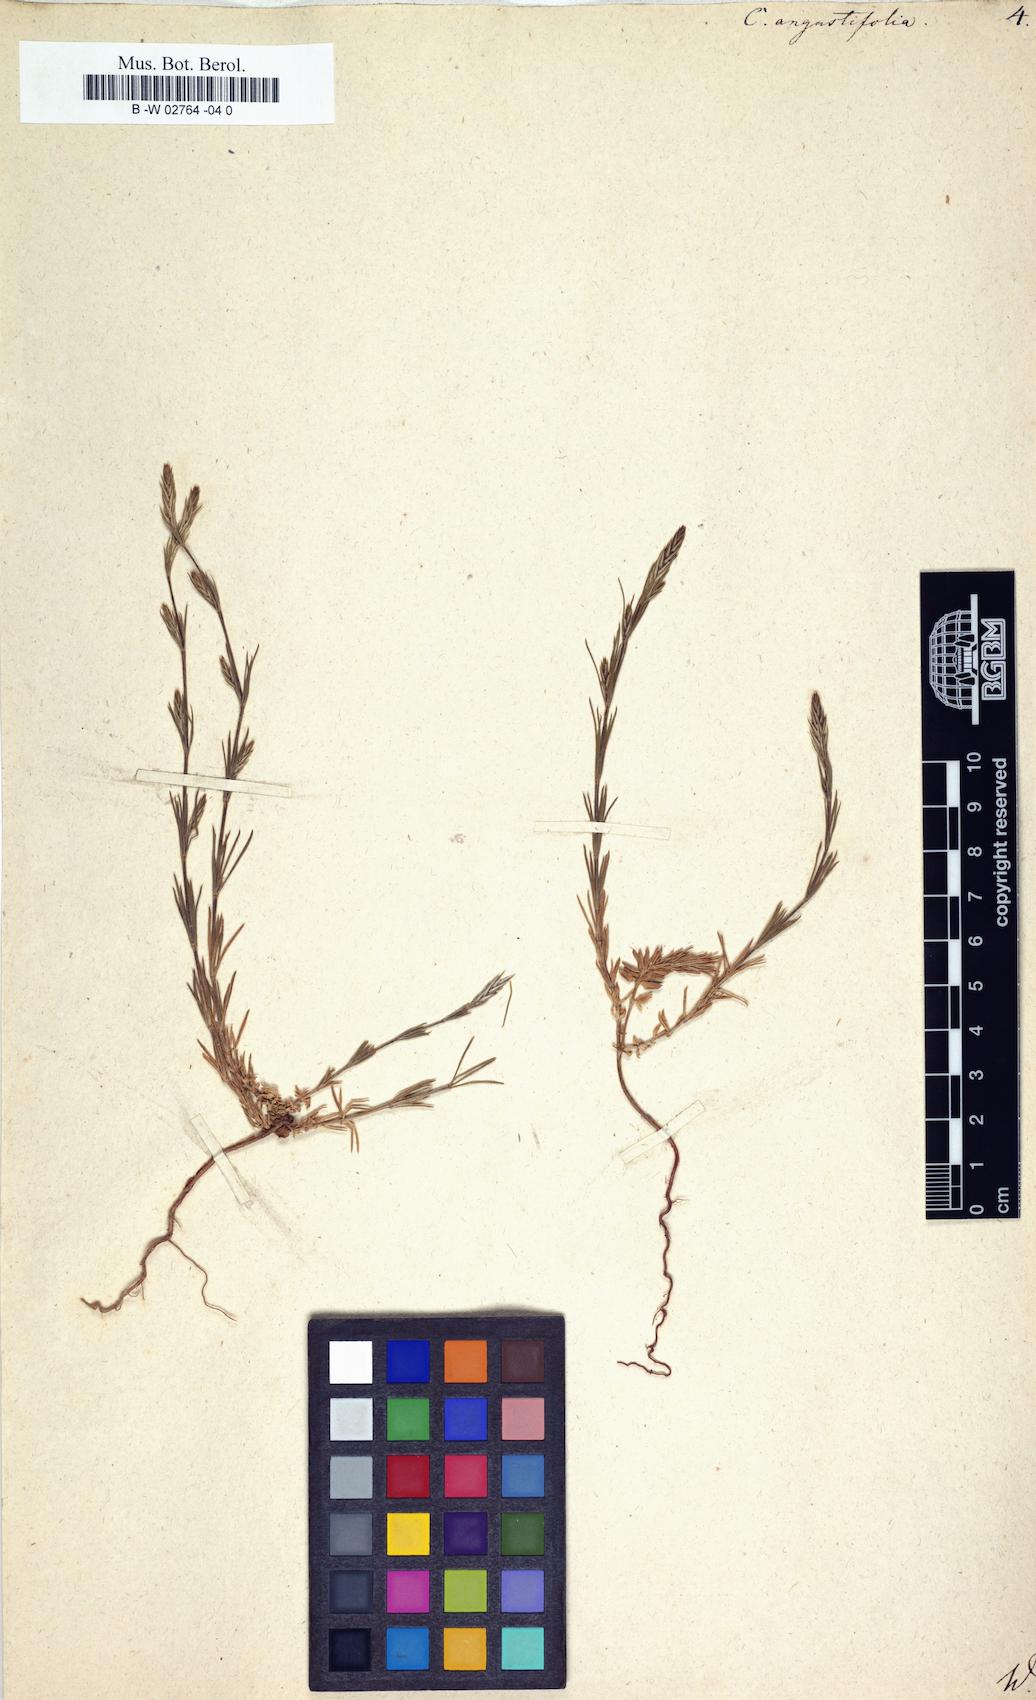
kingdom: Plantae
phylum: Tracheophyta
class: Magnoliopsida
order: Gentianales
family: Rubiaceae
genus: Crucianella
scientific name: Crucianella angustifolia
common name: Narrowleaf crucianella
